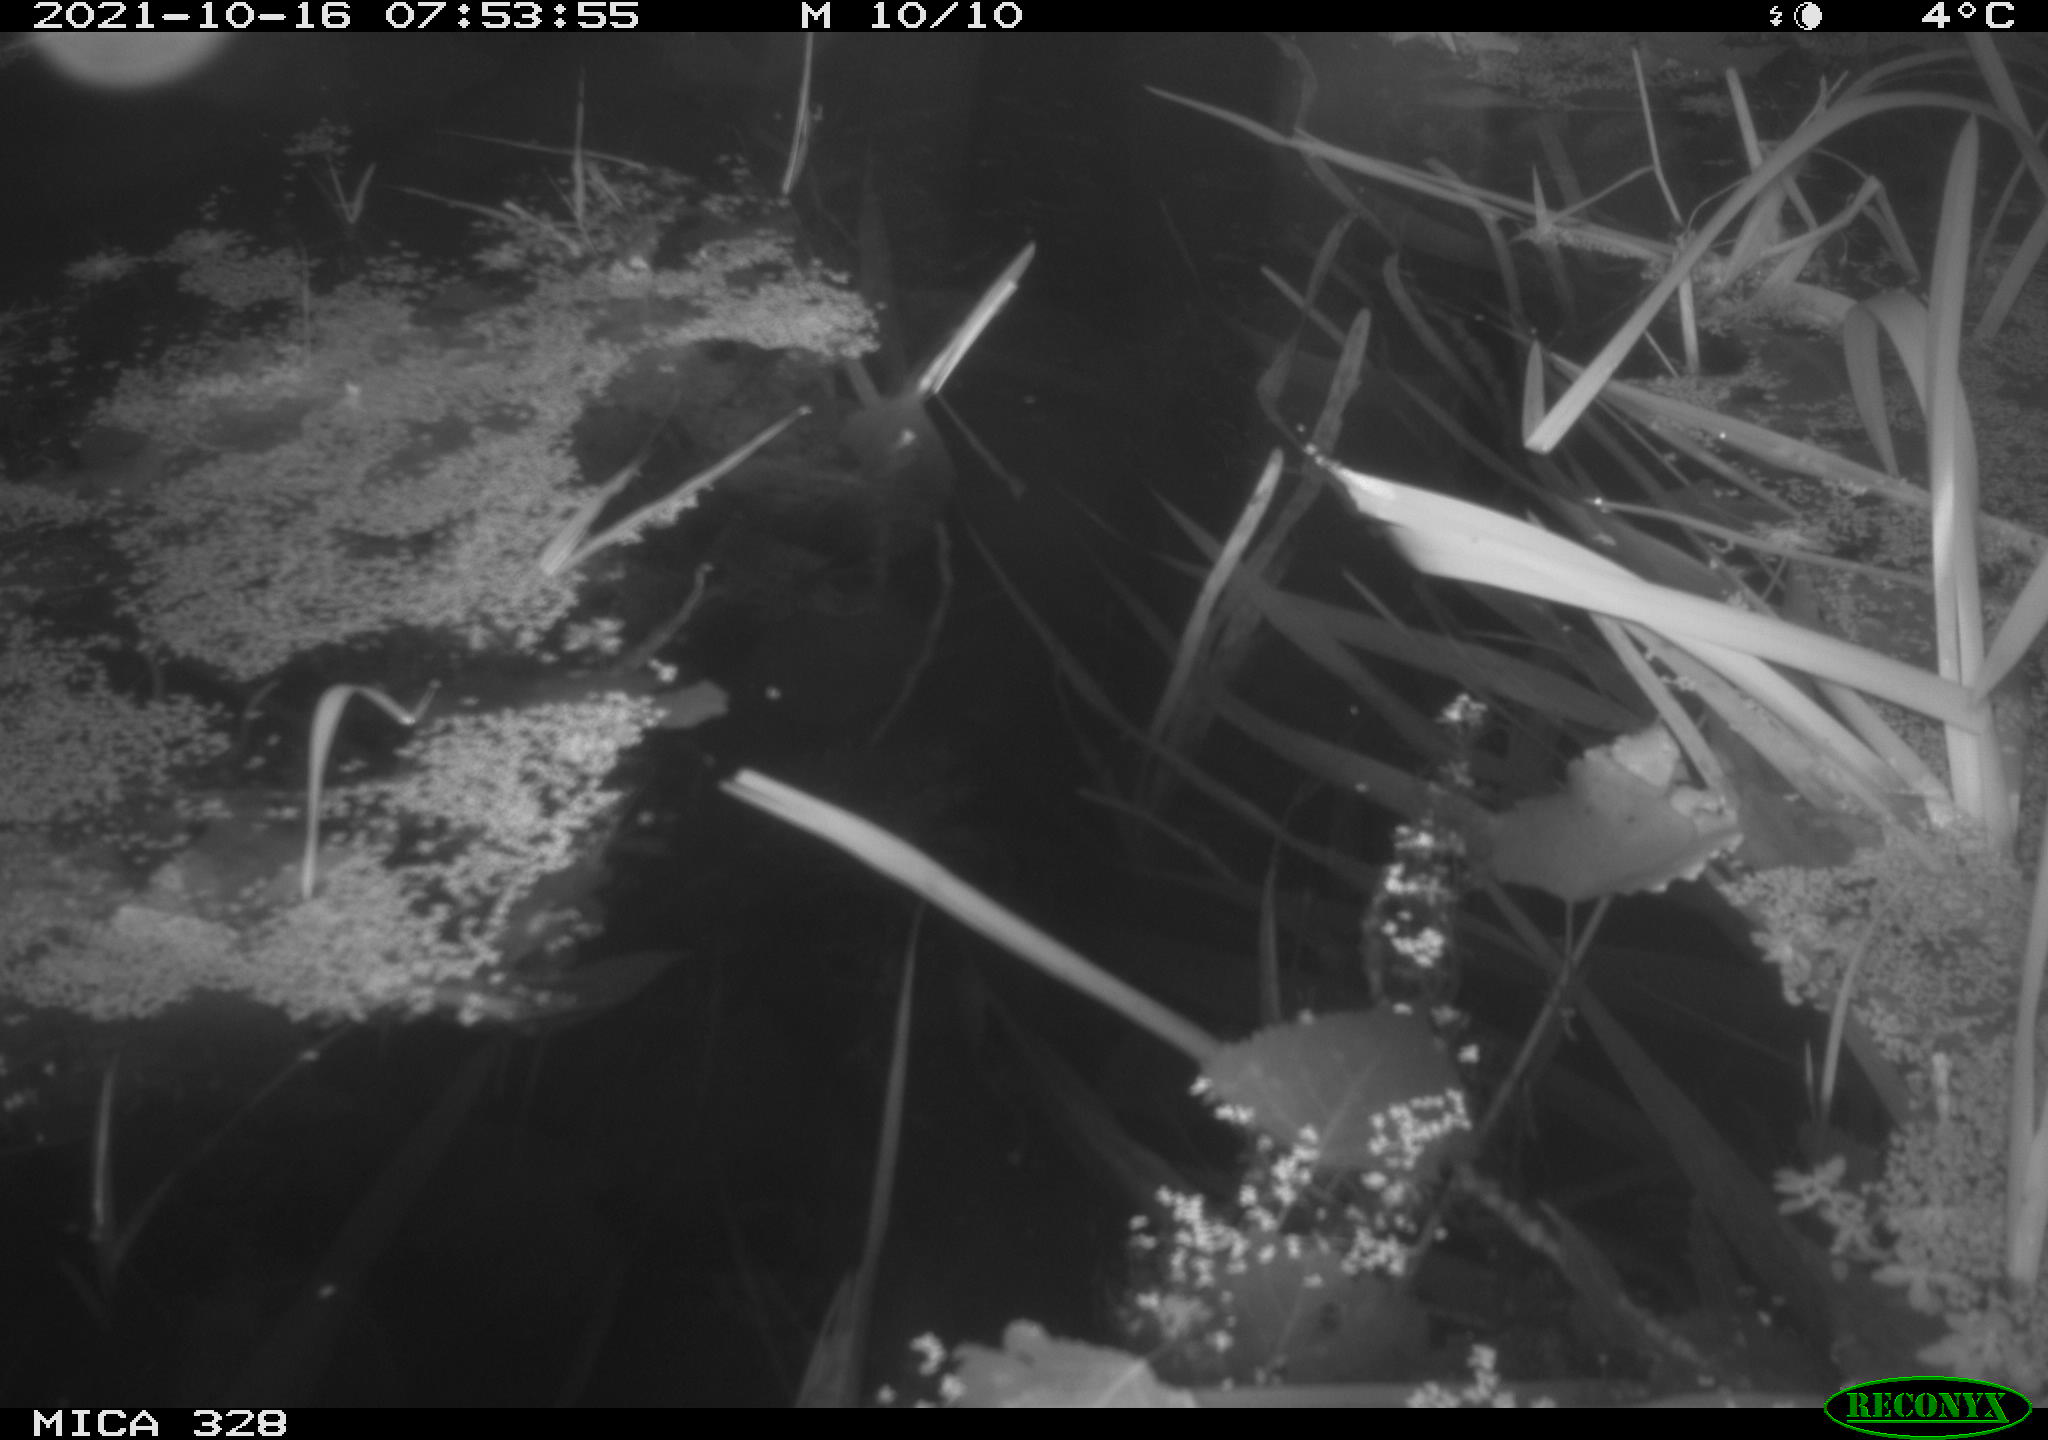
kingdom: Animalia
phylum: Chordata
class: Mammalia
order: Rodentia
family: Cricetidae
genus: Ondatra
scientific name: Ondatra zibethicus
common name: Muskrat
